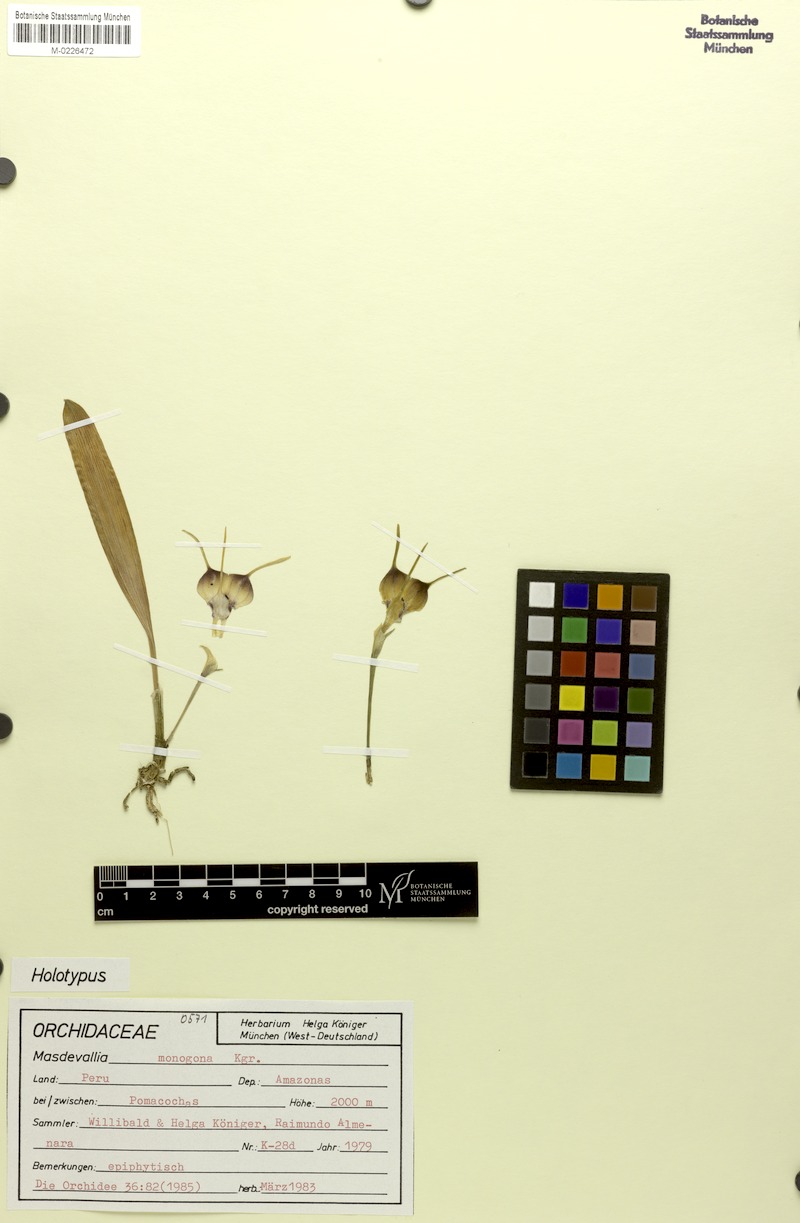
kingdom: Plantae
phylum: Tracheophyta
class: Liliopsida
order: Asparagales
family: Orchidaceae
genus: Masdevallia
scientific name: Masdevallia monogona
